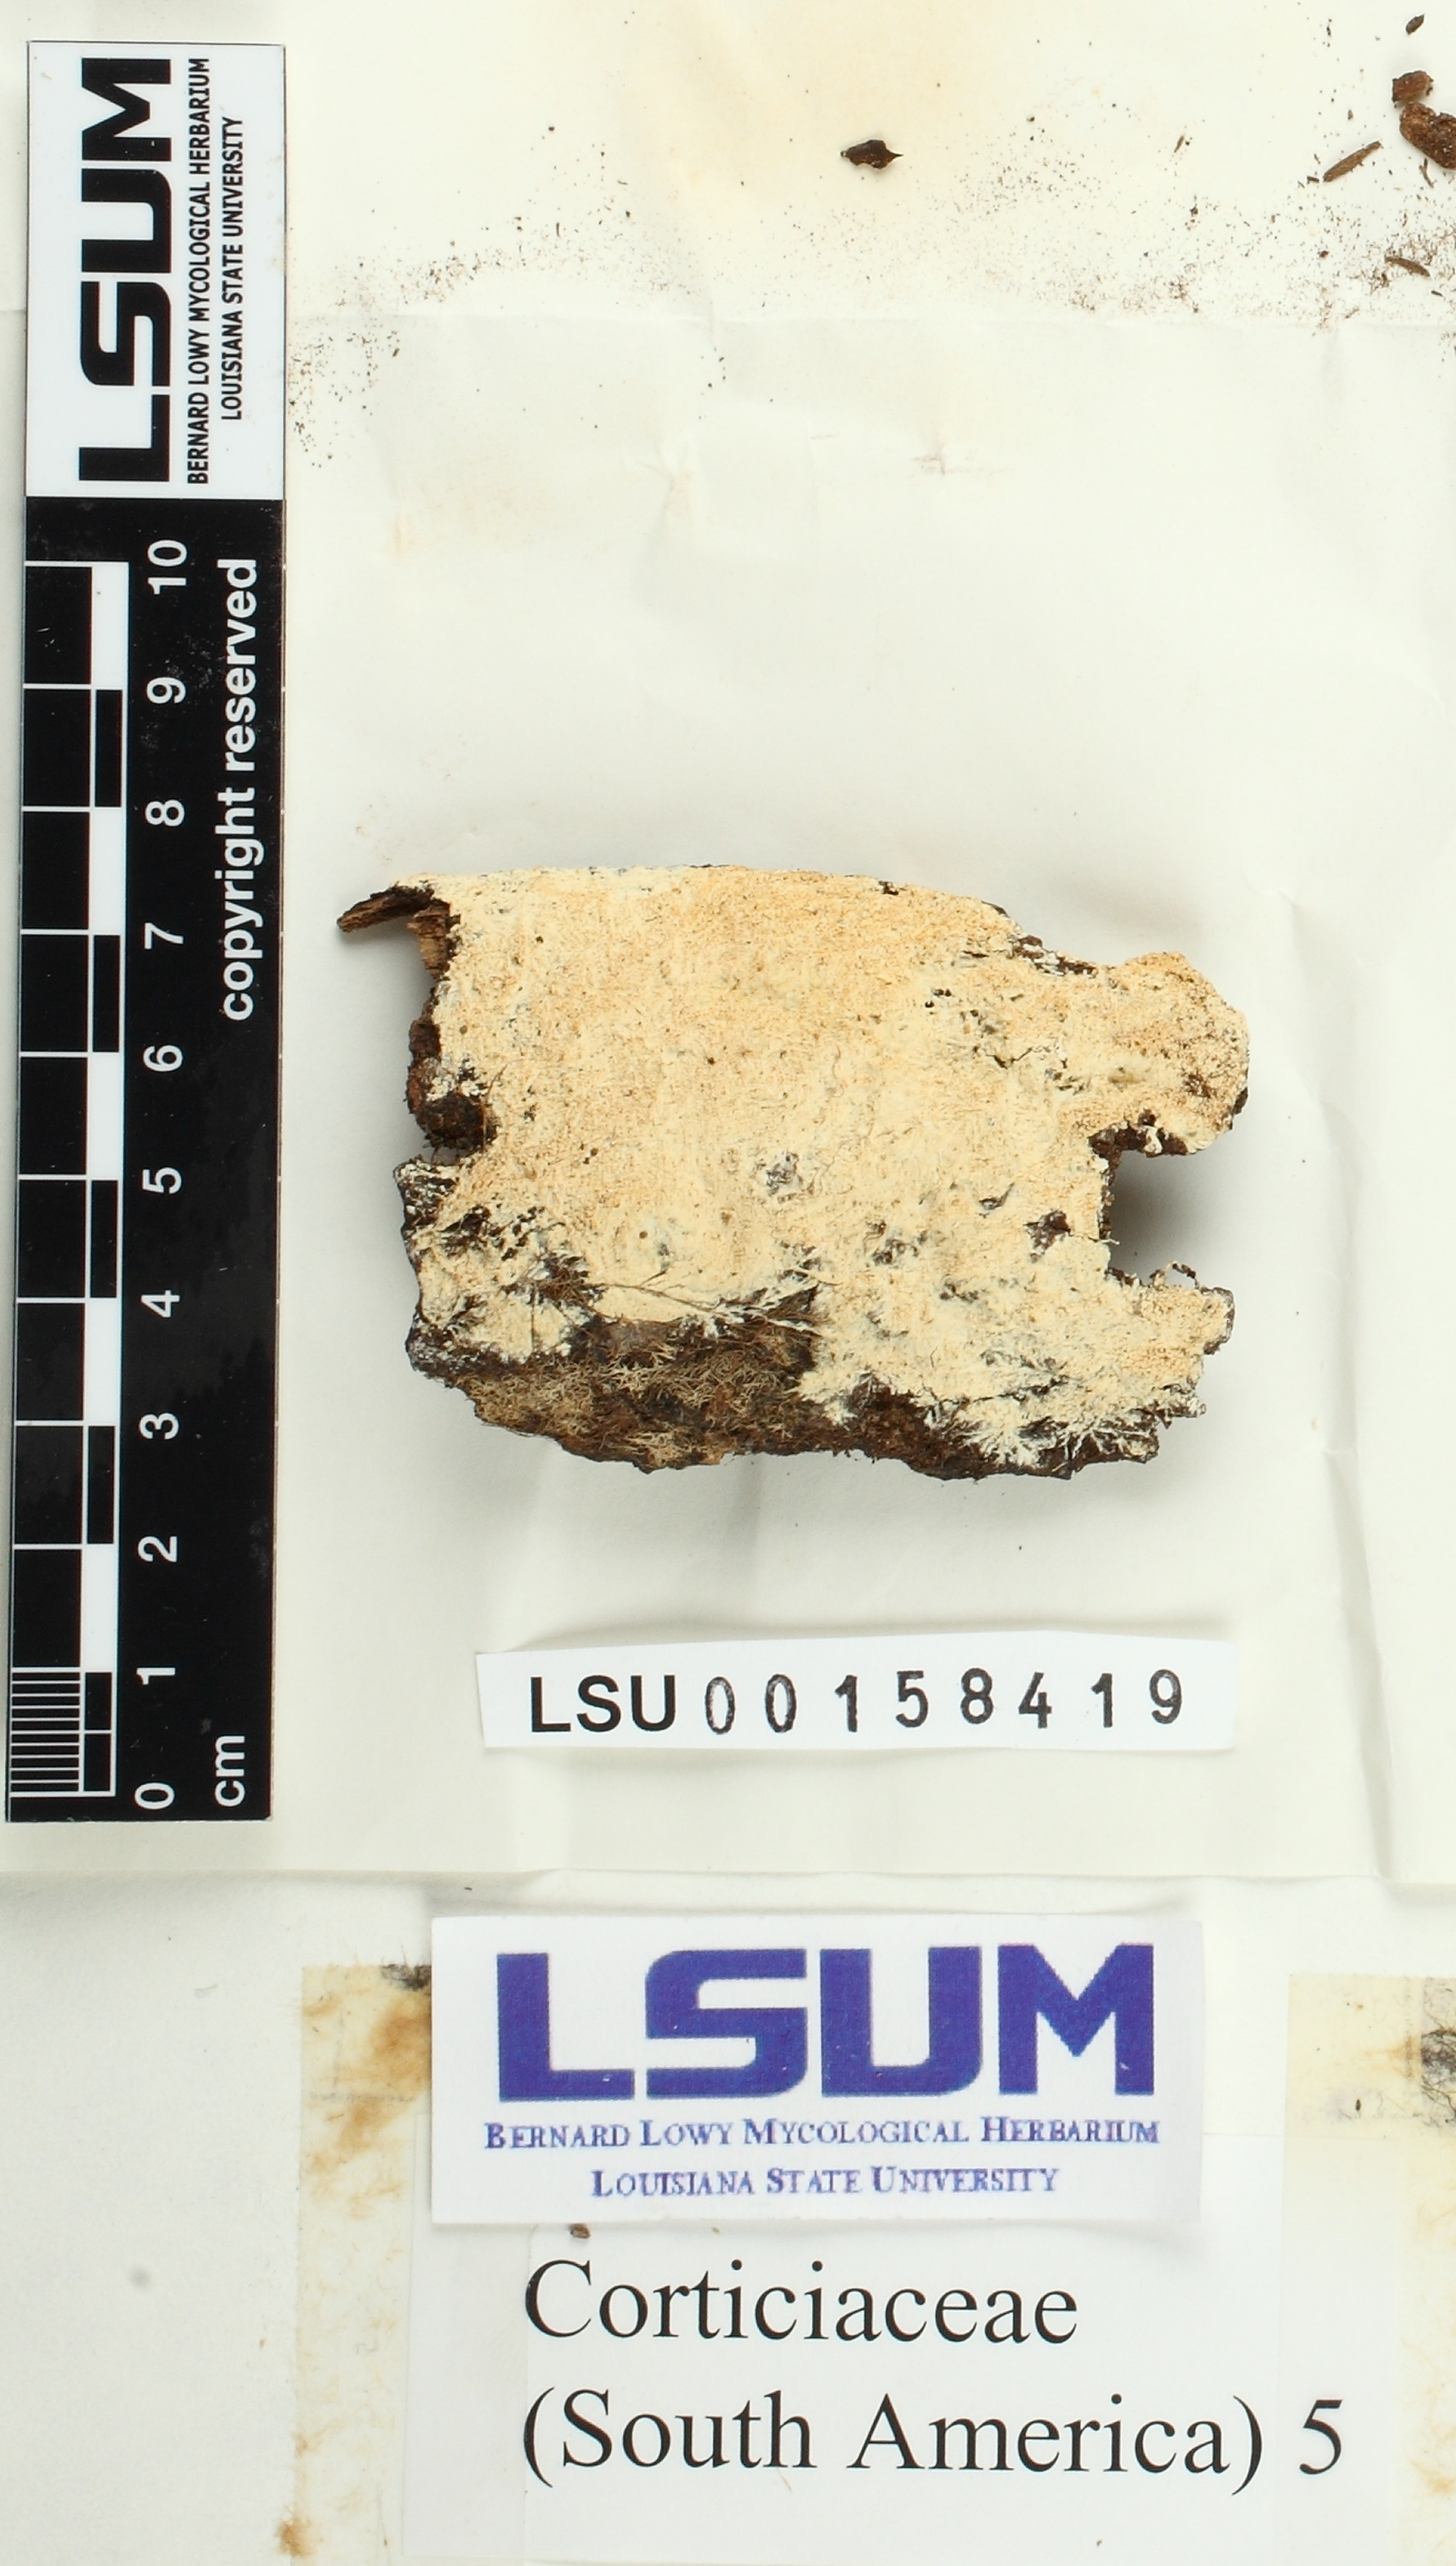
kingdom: Fungi
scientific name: Fungi
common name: Fungi
